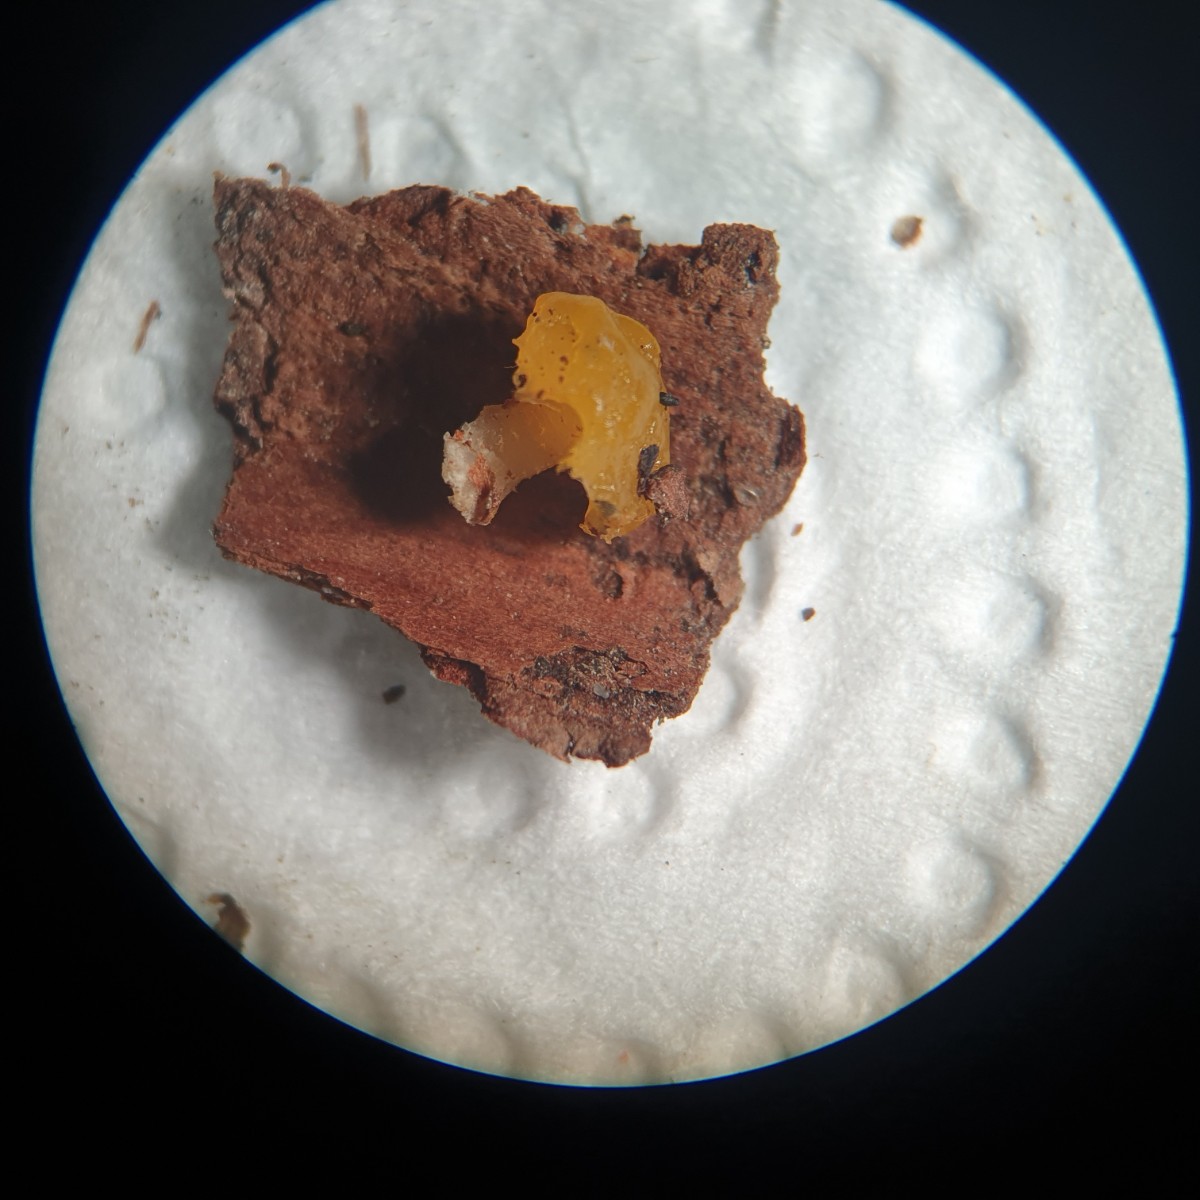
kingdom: Fungi
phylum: Basidiomycota
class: Dacrymycetes
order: Dacrymycetales
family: Dacrymycetaceae
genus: Ditiola
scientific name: Ditiola radicata
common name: rod-tåresvamp
